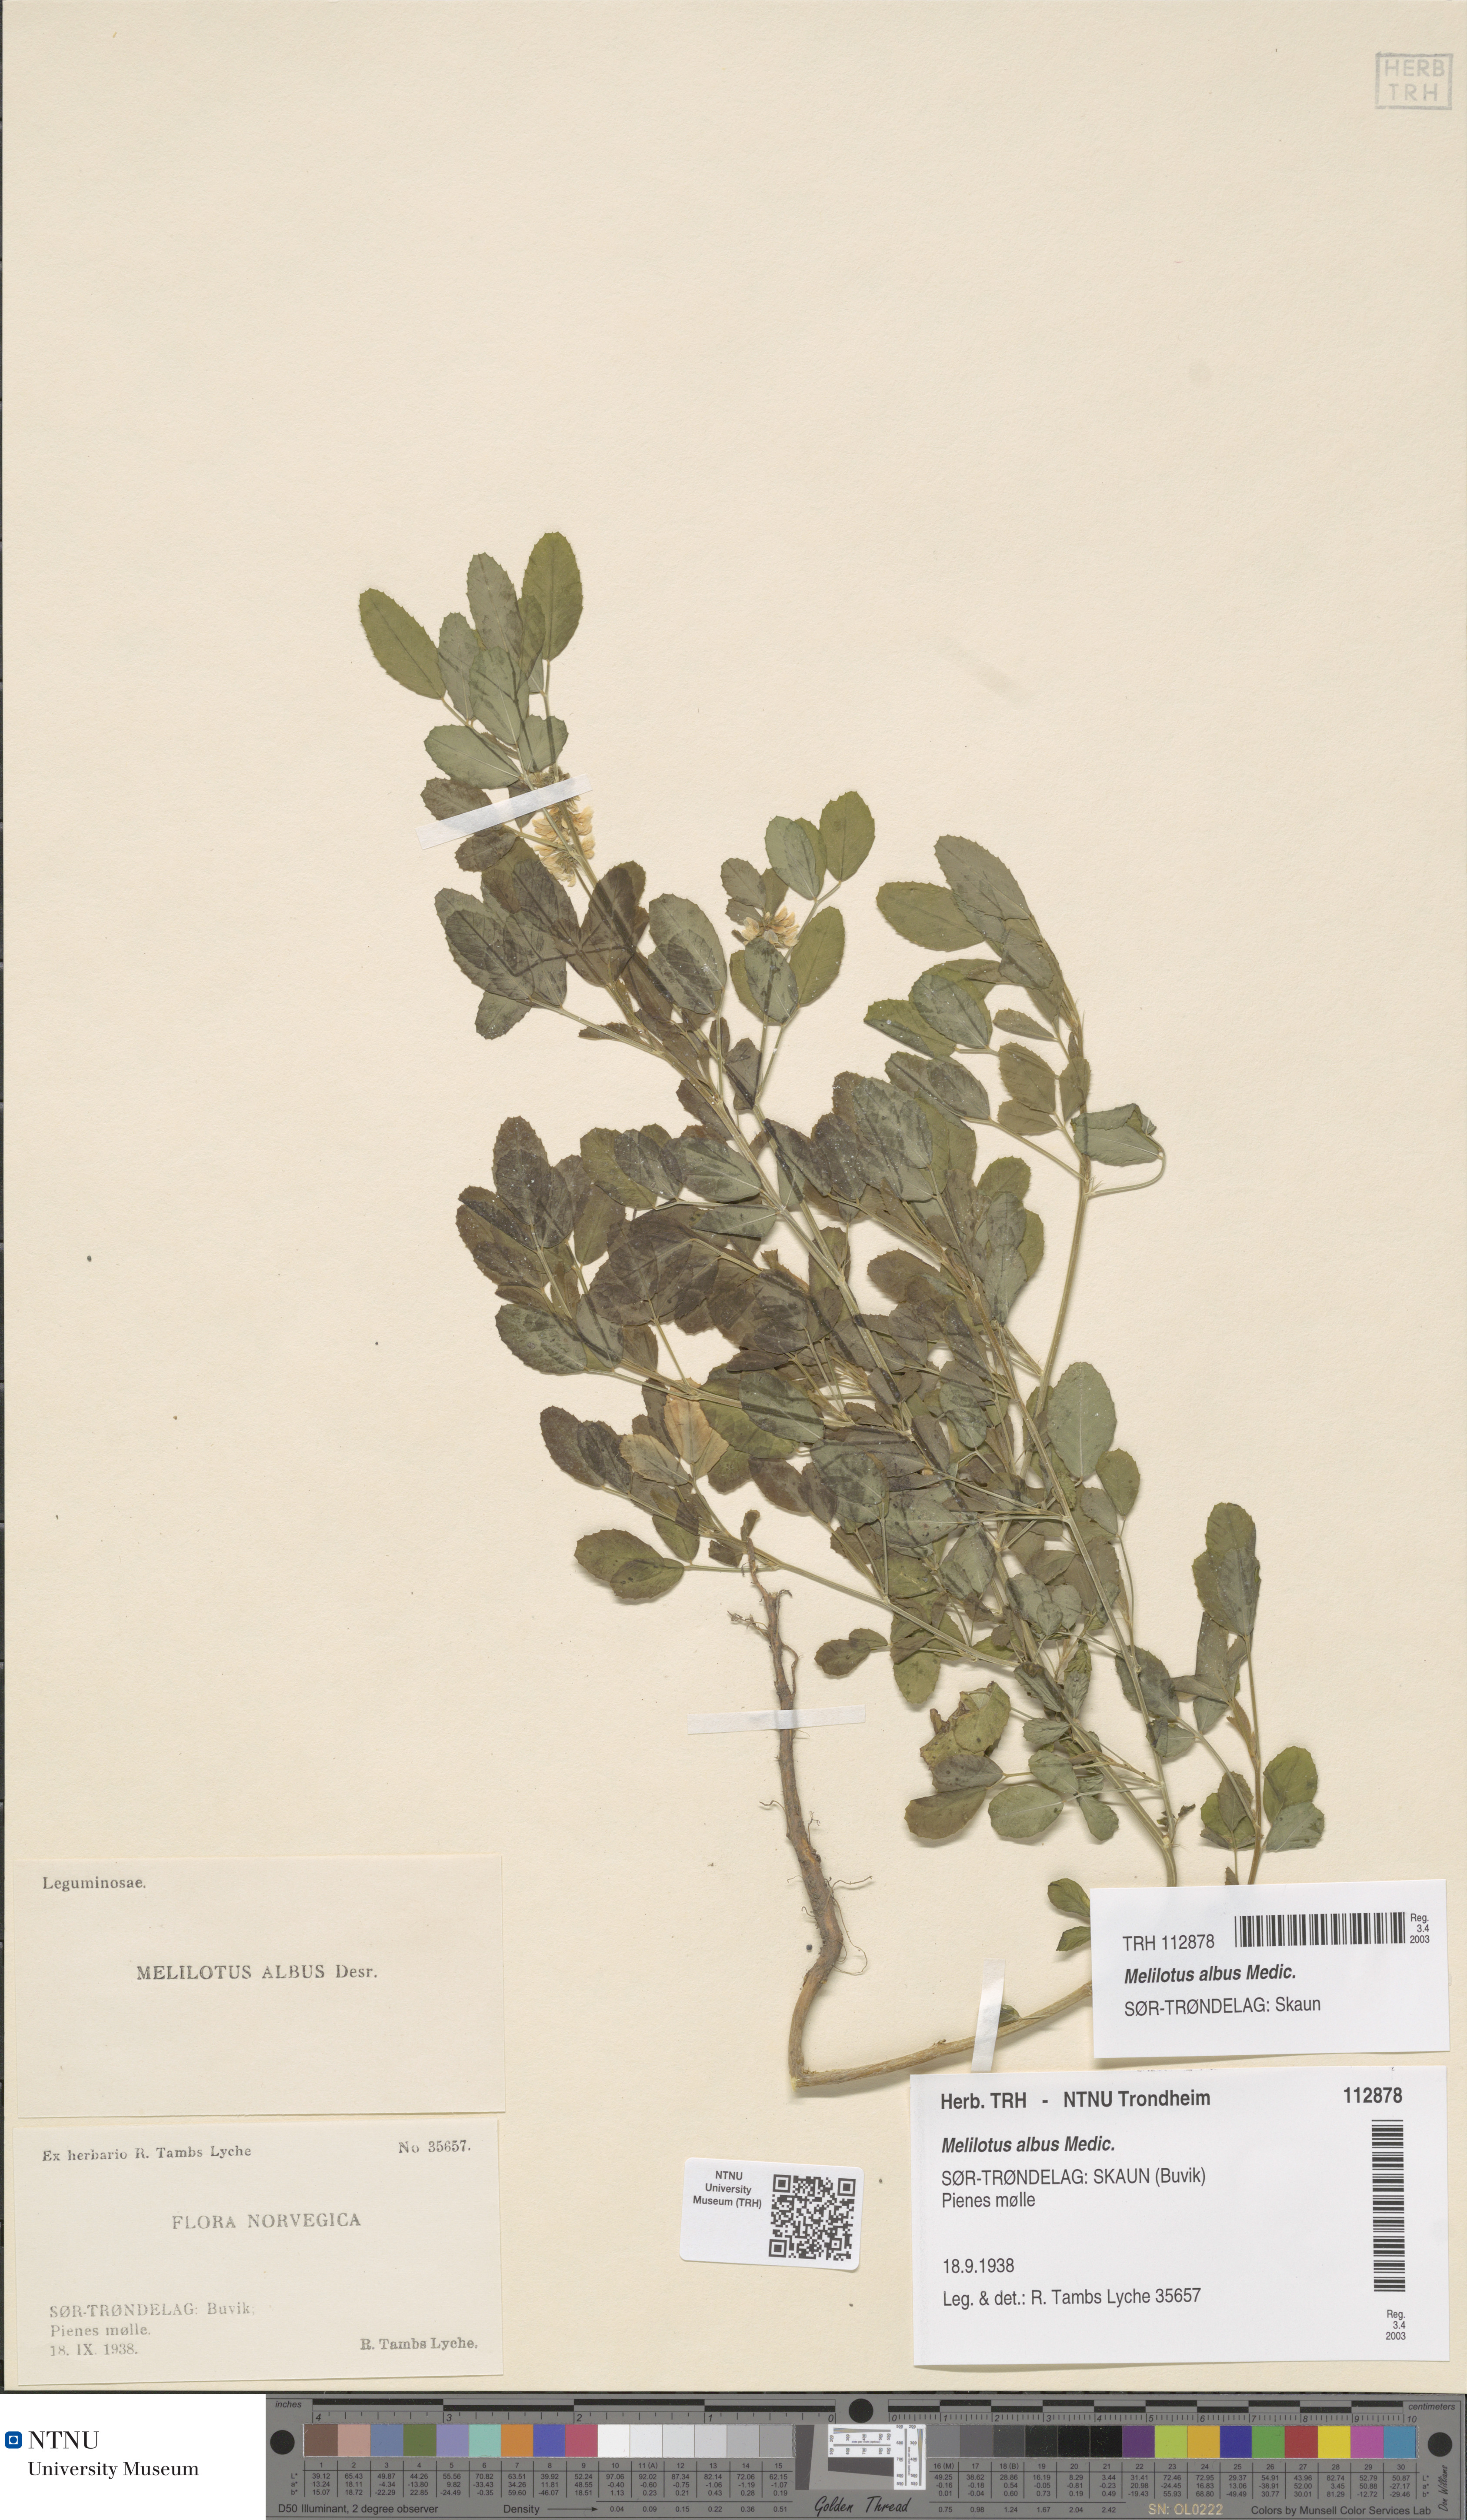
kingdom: Plantae
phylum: Tracheophyta
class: Magnoliopsida
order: Fabales
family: Fabaceae
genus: Melilotus
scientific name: Melilotus albus
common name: White melilot
